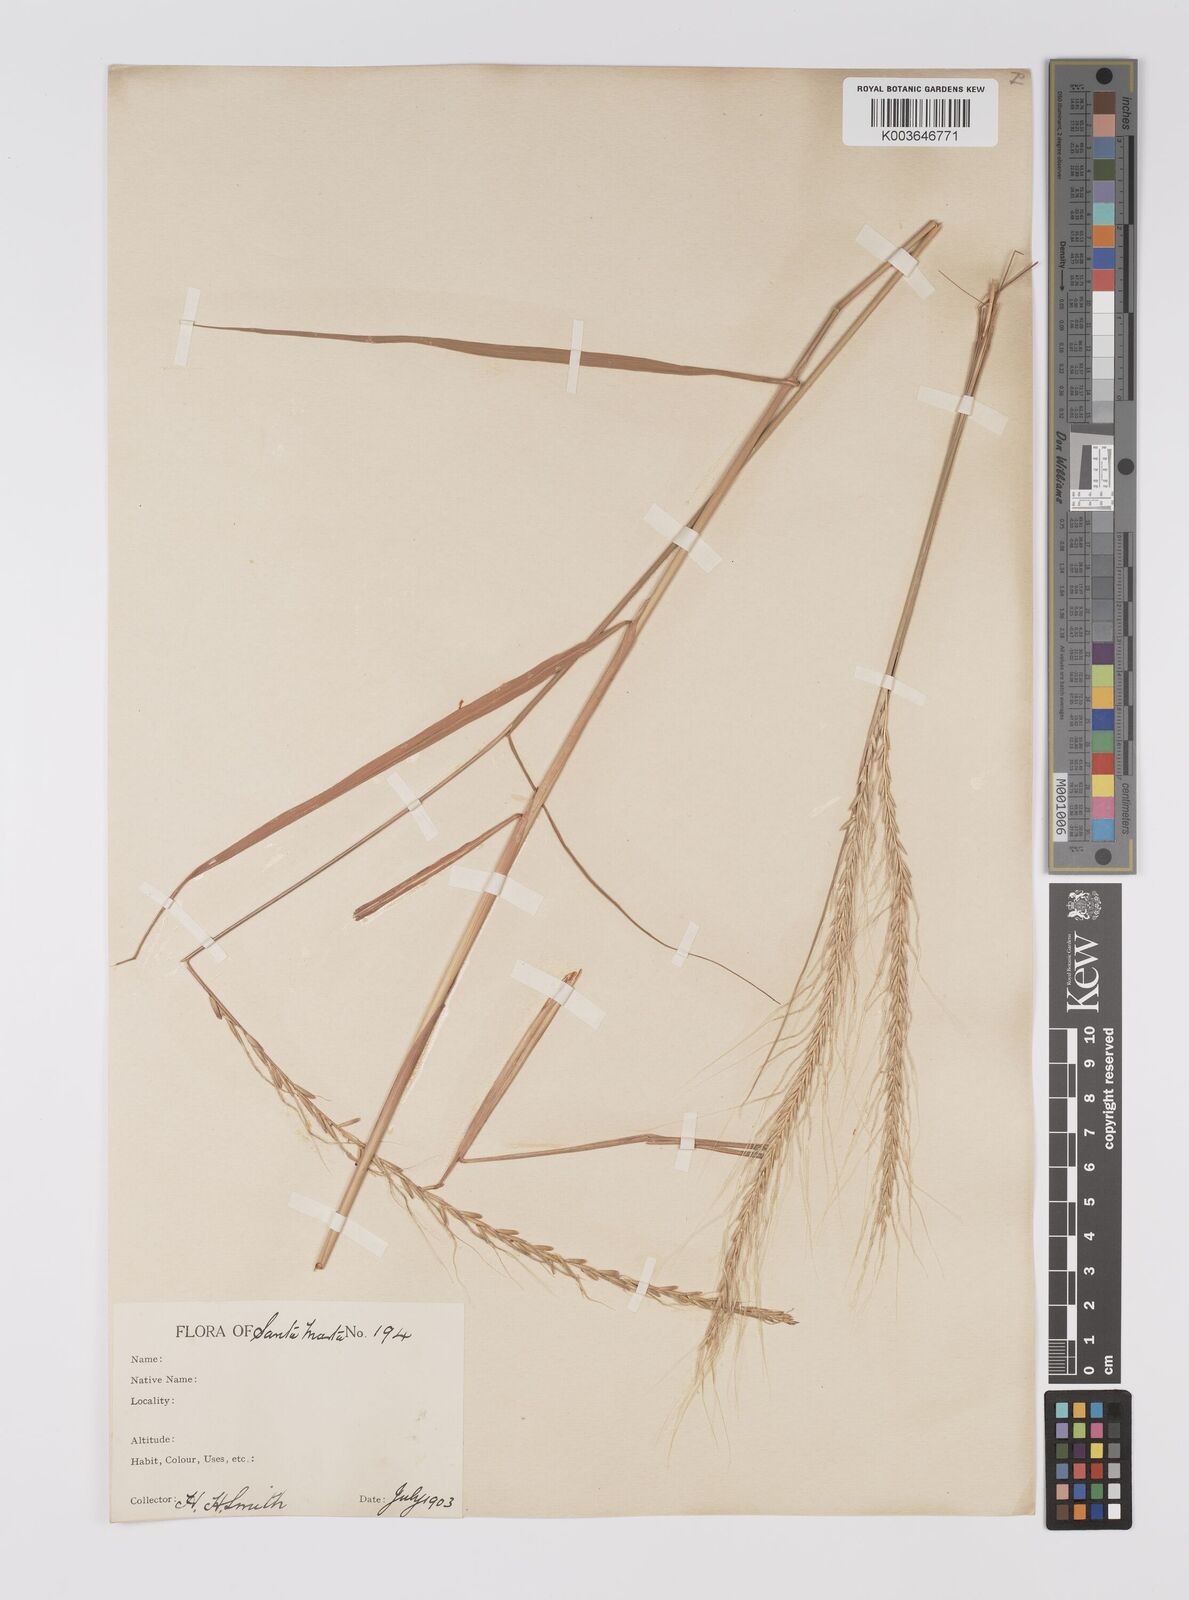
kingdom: Plantae
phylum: Tracheophyta
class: Liliopsida
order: Poales
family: Poaceae
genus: Trachypogon
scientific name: Trachypogon spicatus
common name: Crinkle-awn
